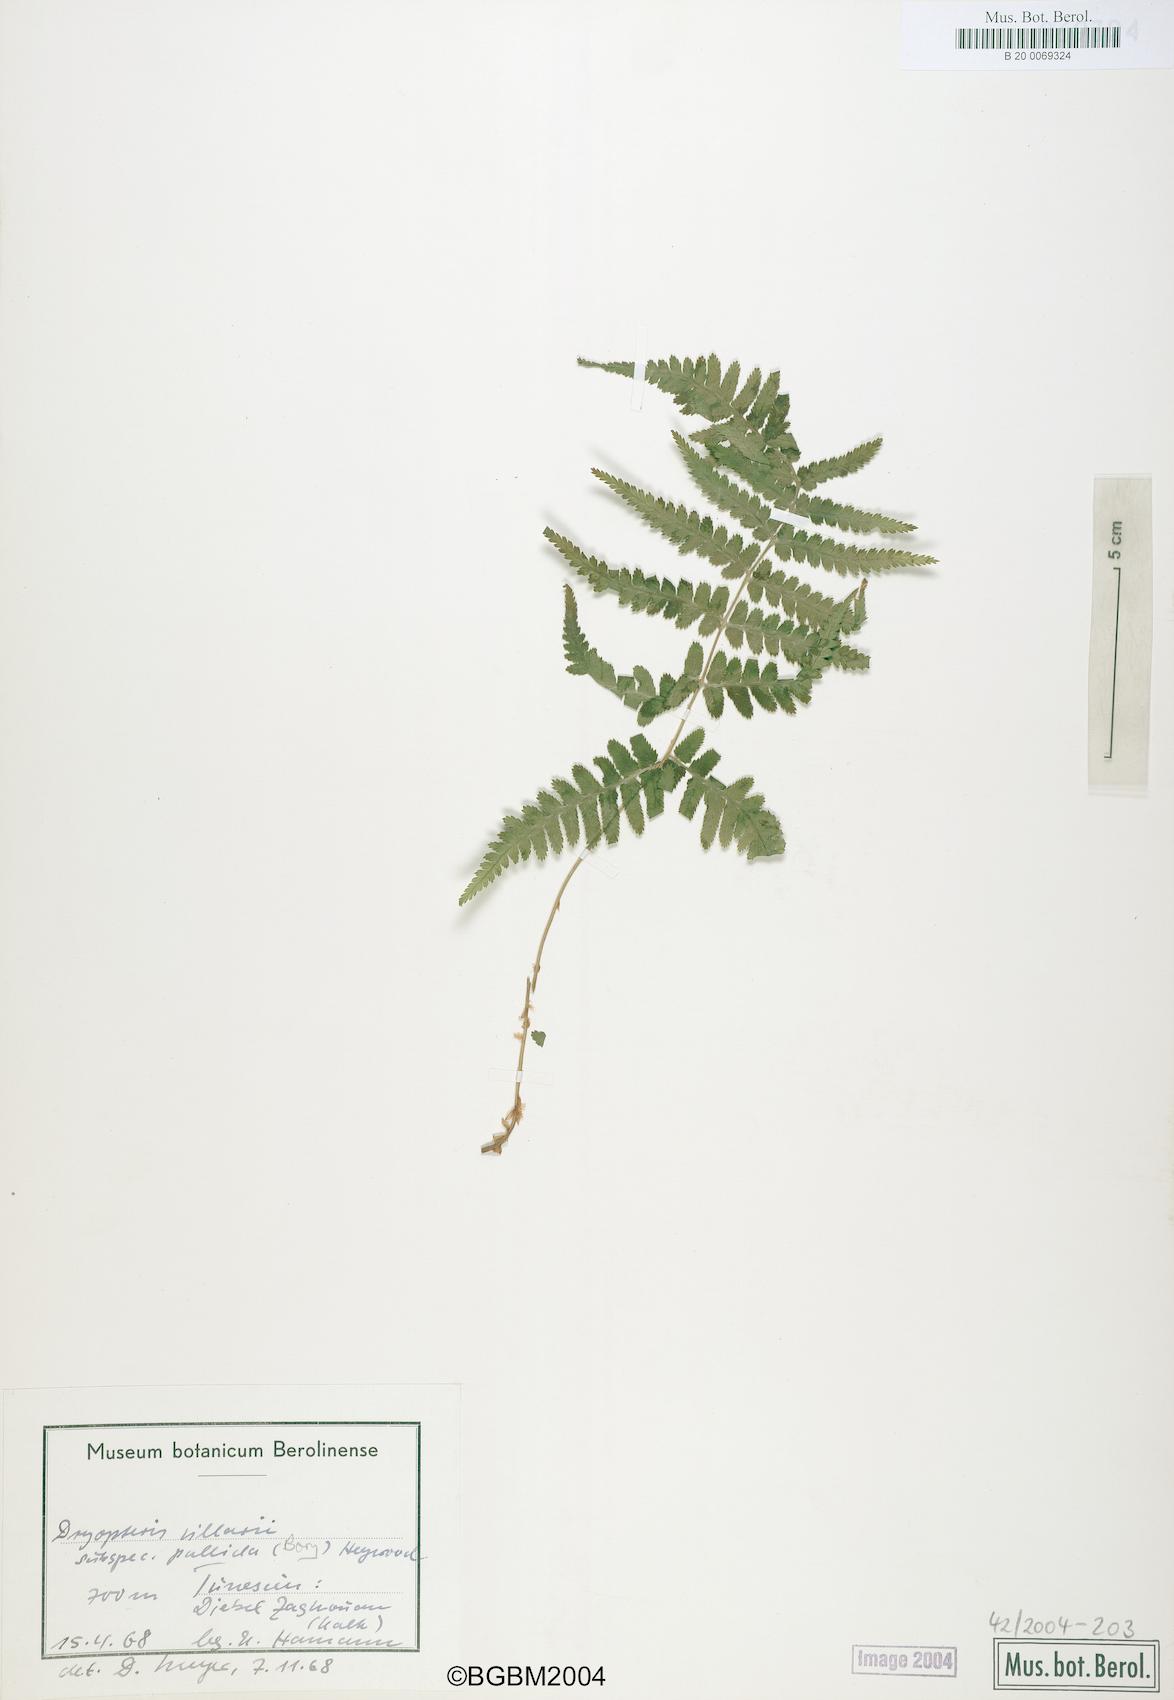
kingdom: Plantae
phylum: Tracheophyta
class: Polypodiopsida
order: Polypodiales
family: Dryopteridaceae
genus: Dryopteris
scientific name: Dryopteris pallida
